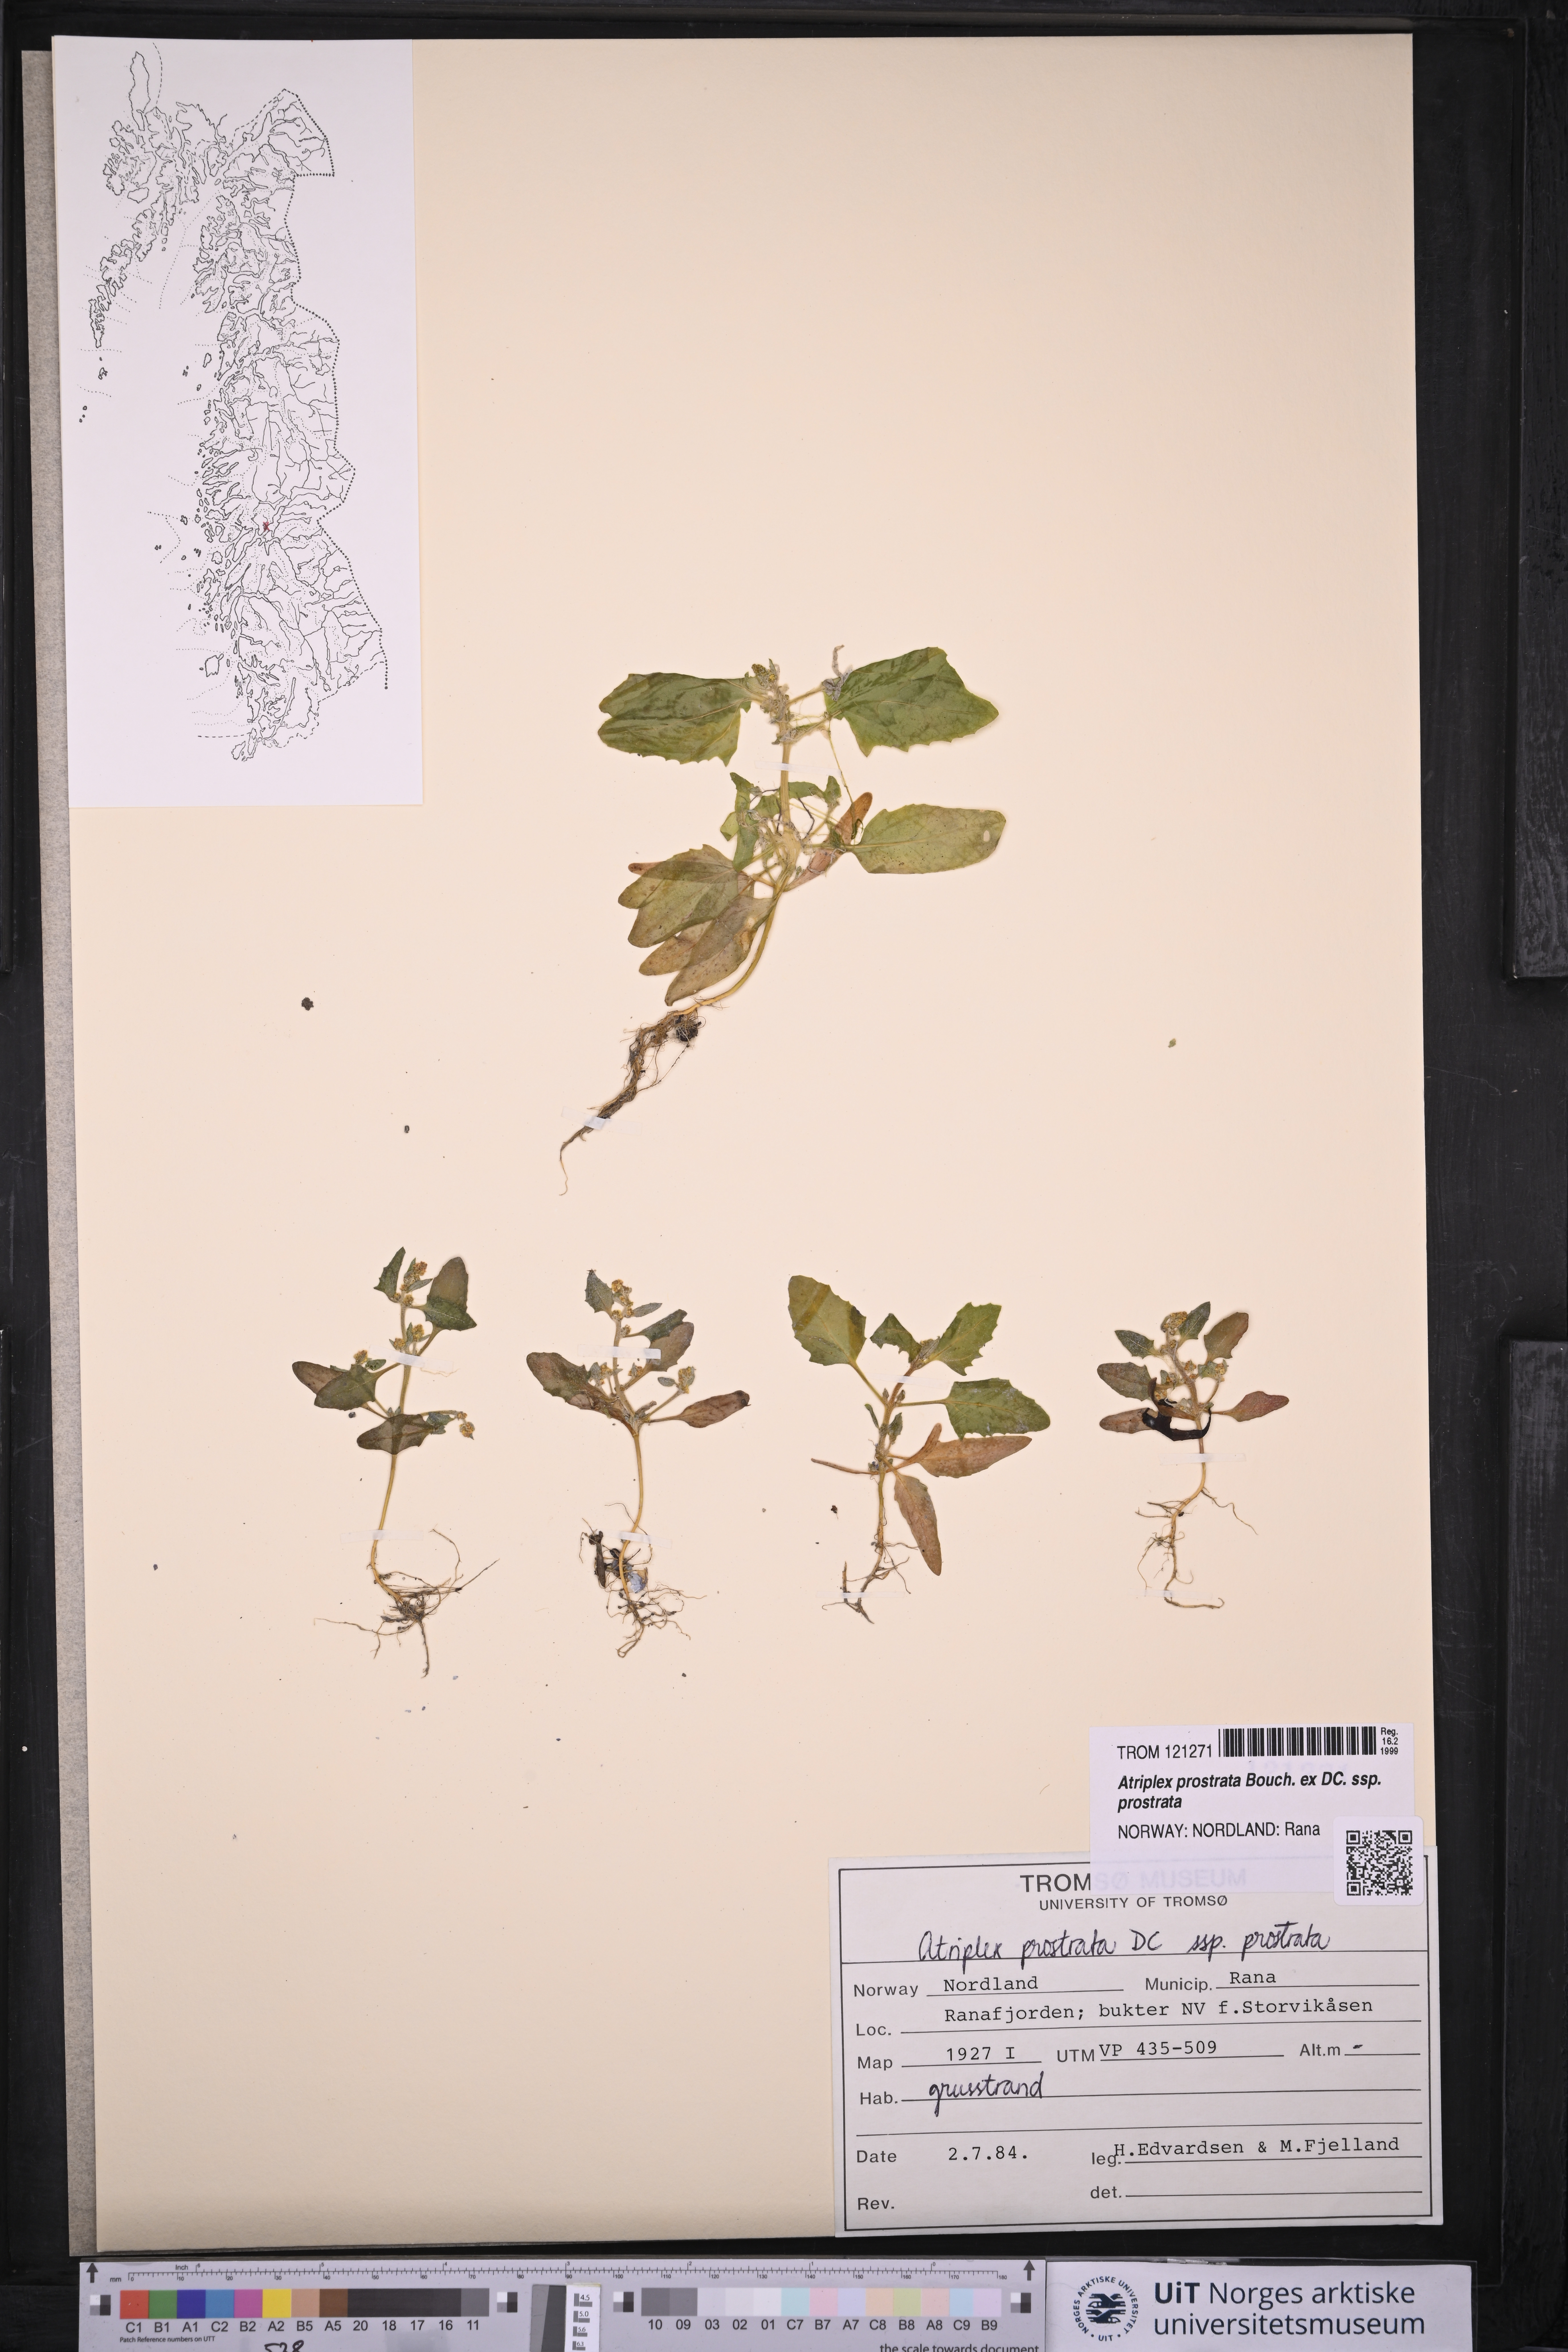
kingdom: Plantae
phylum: Tracheophyta
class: Magnoliopsida
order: Caryophyllales
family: Amaranthaceae
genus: Atriplex
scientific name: Atriplex prostrata
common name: Spear-leaved orache
